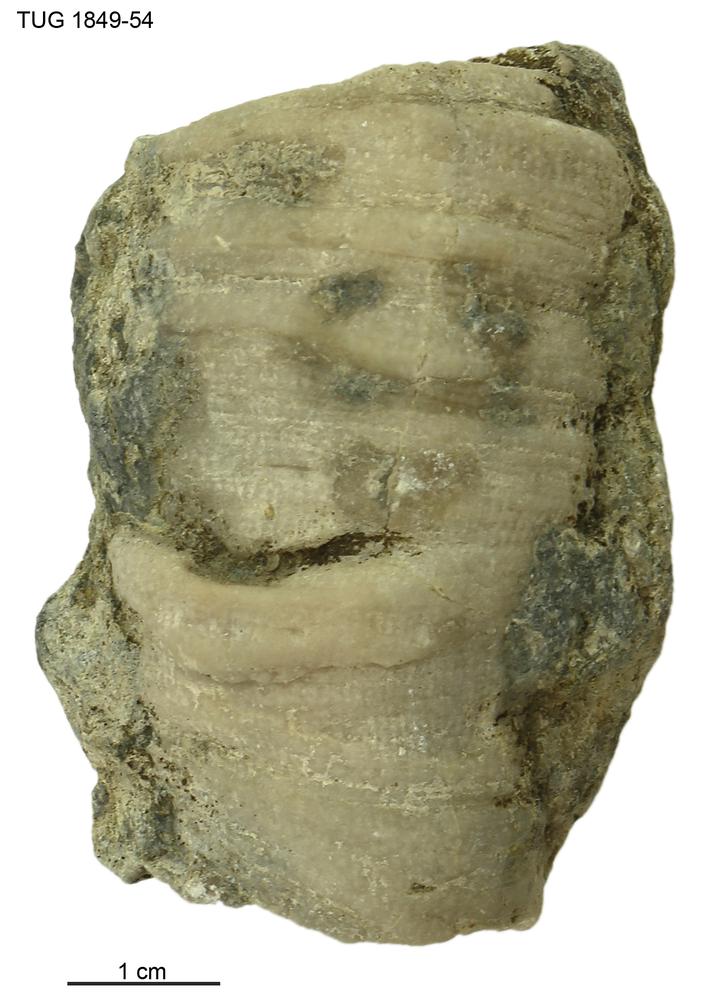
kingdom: Animalia
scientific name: Animalia
